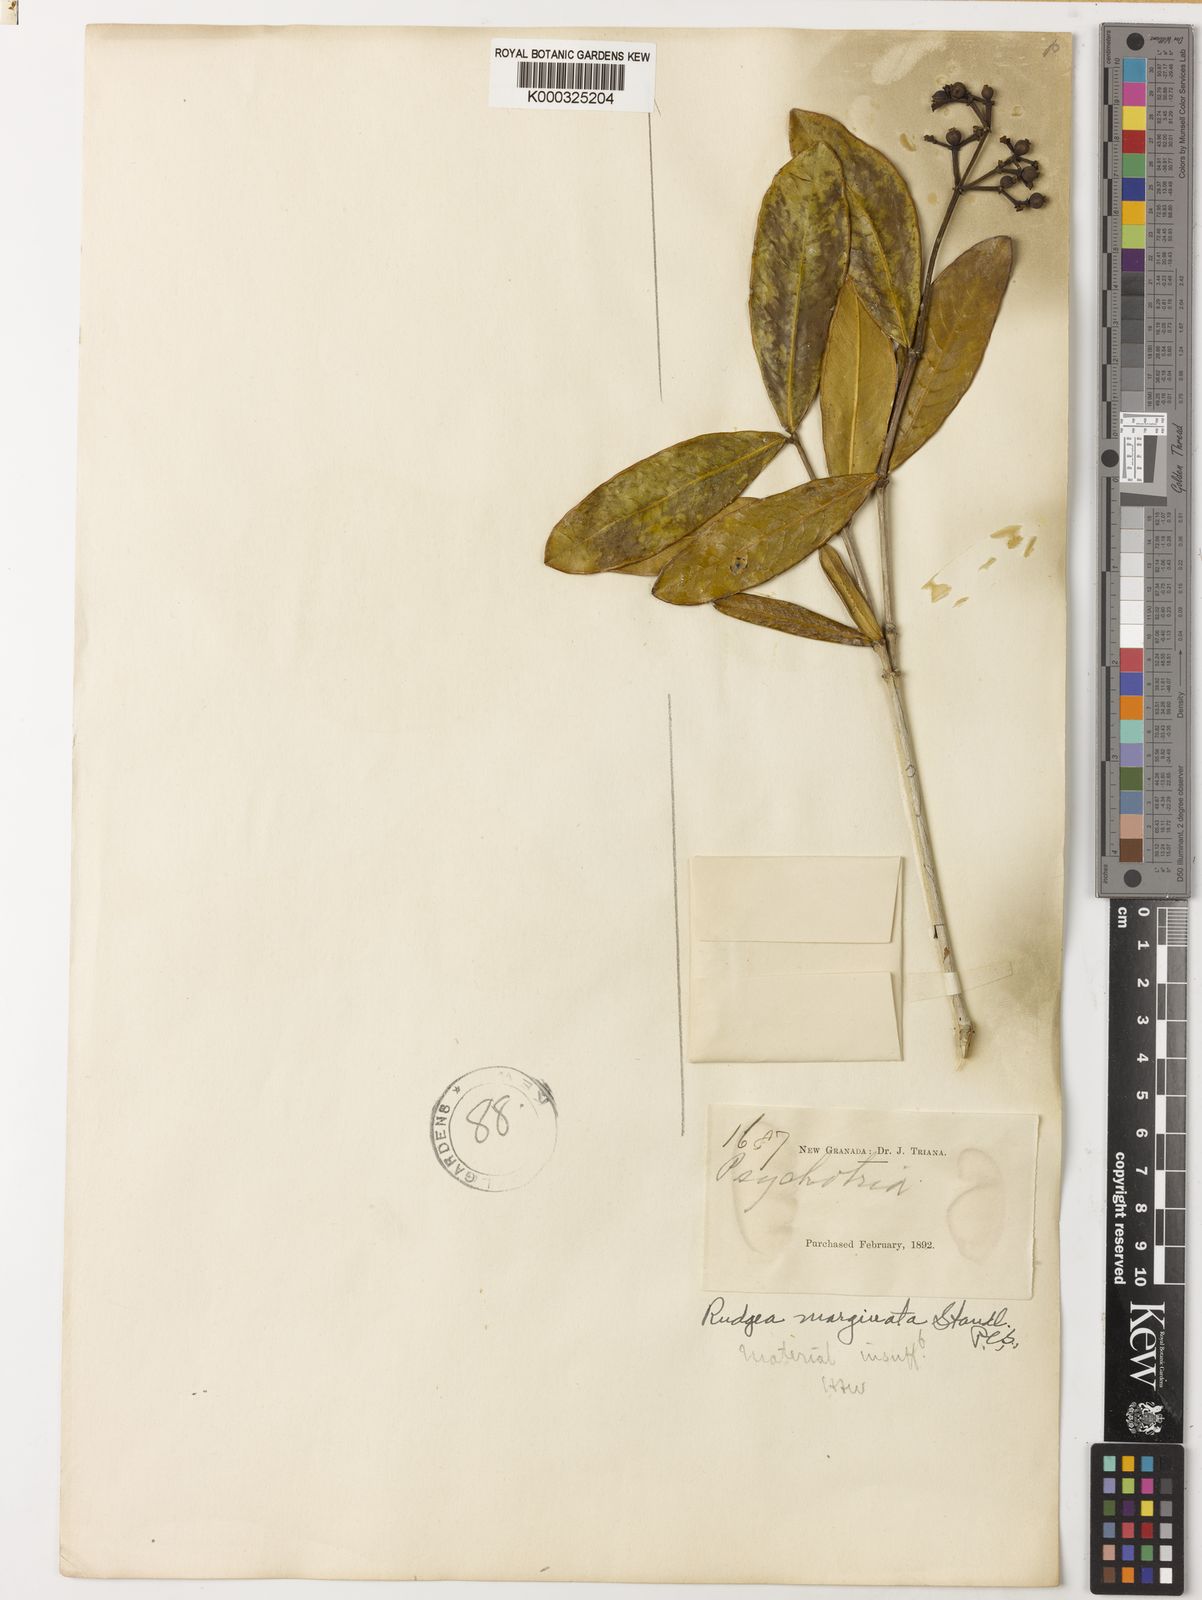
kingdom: Plantae
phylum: Tracheophyta
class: Magnoliopsida
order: Gentianales
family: Rubiaceae
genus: Rudgea
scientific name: Rudgea marginata
